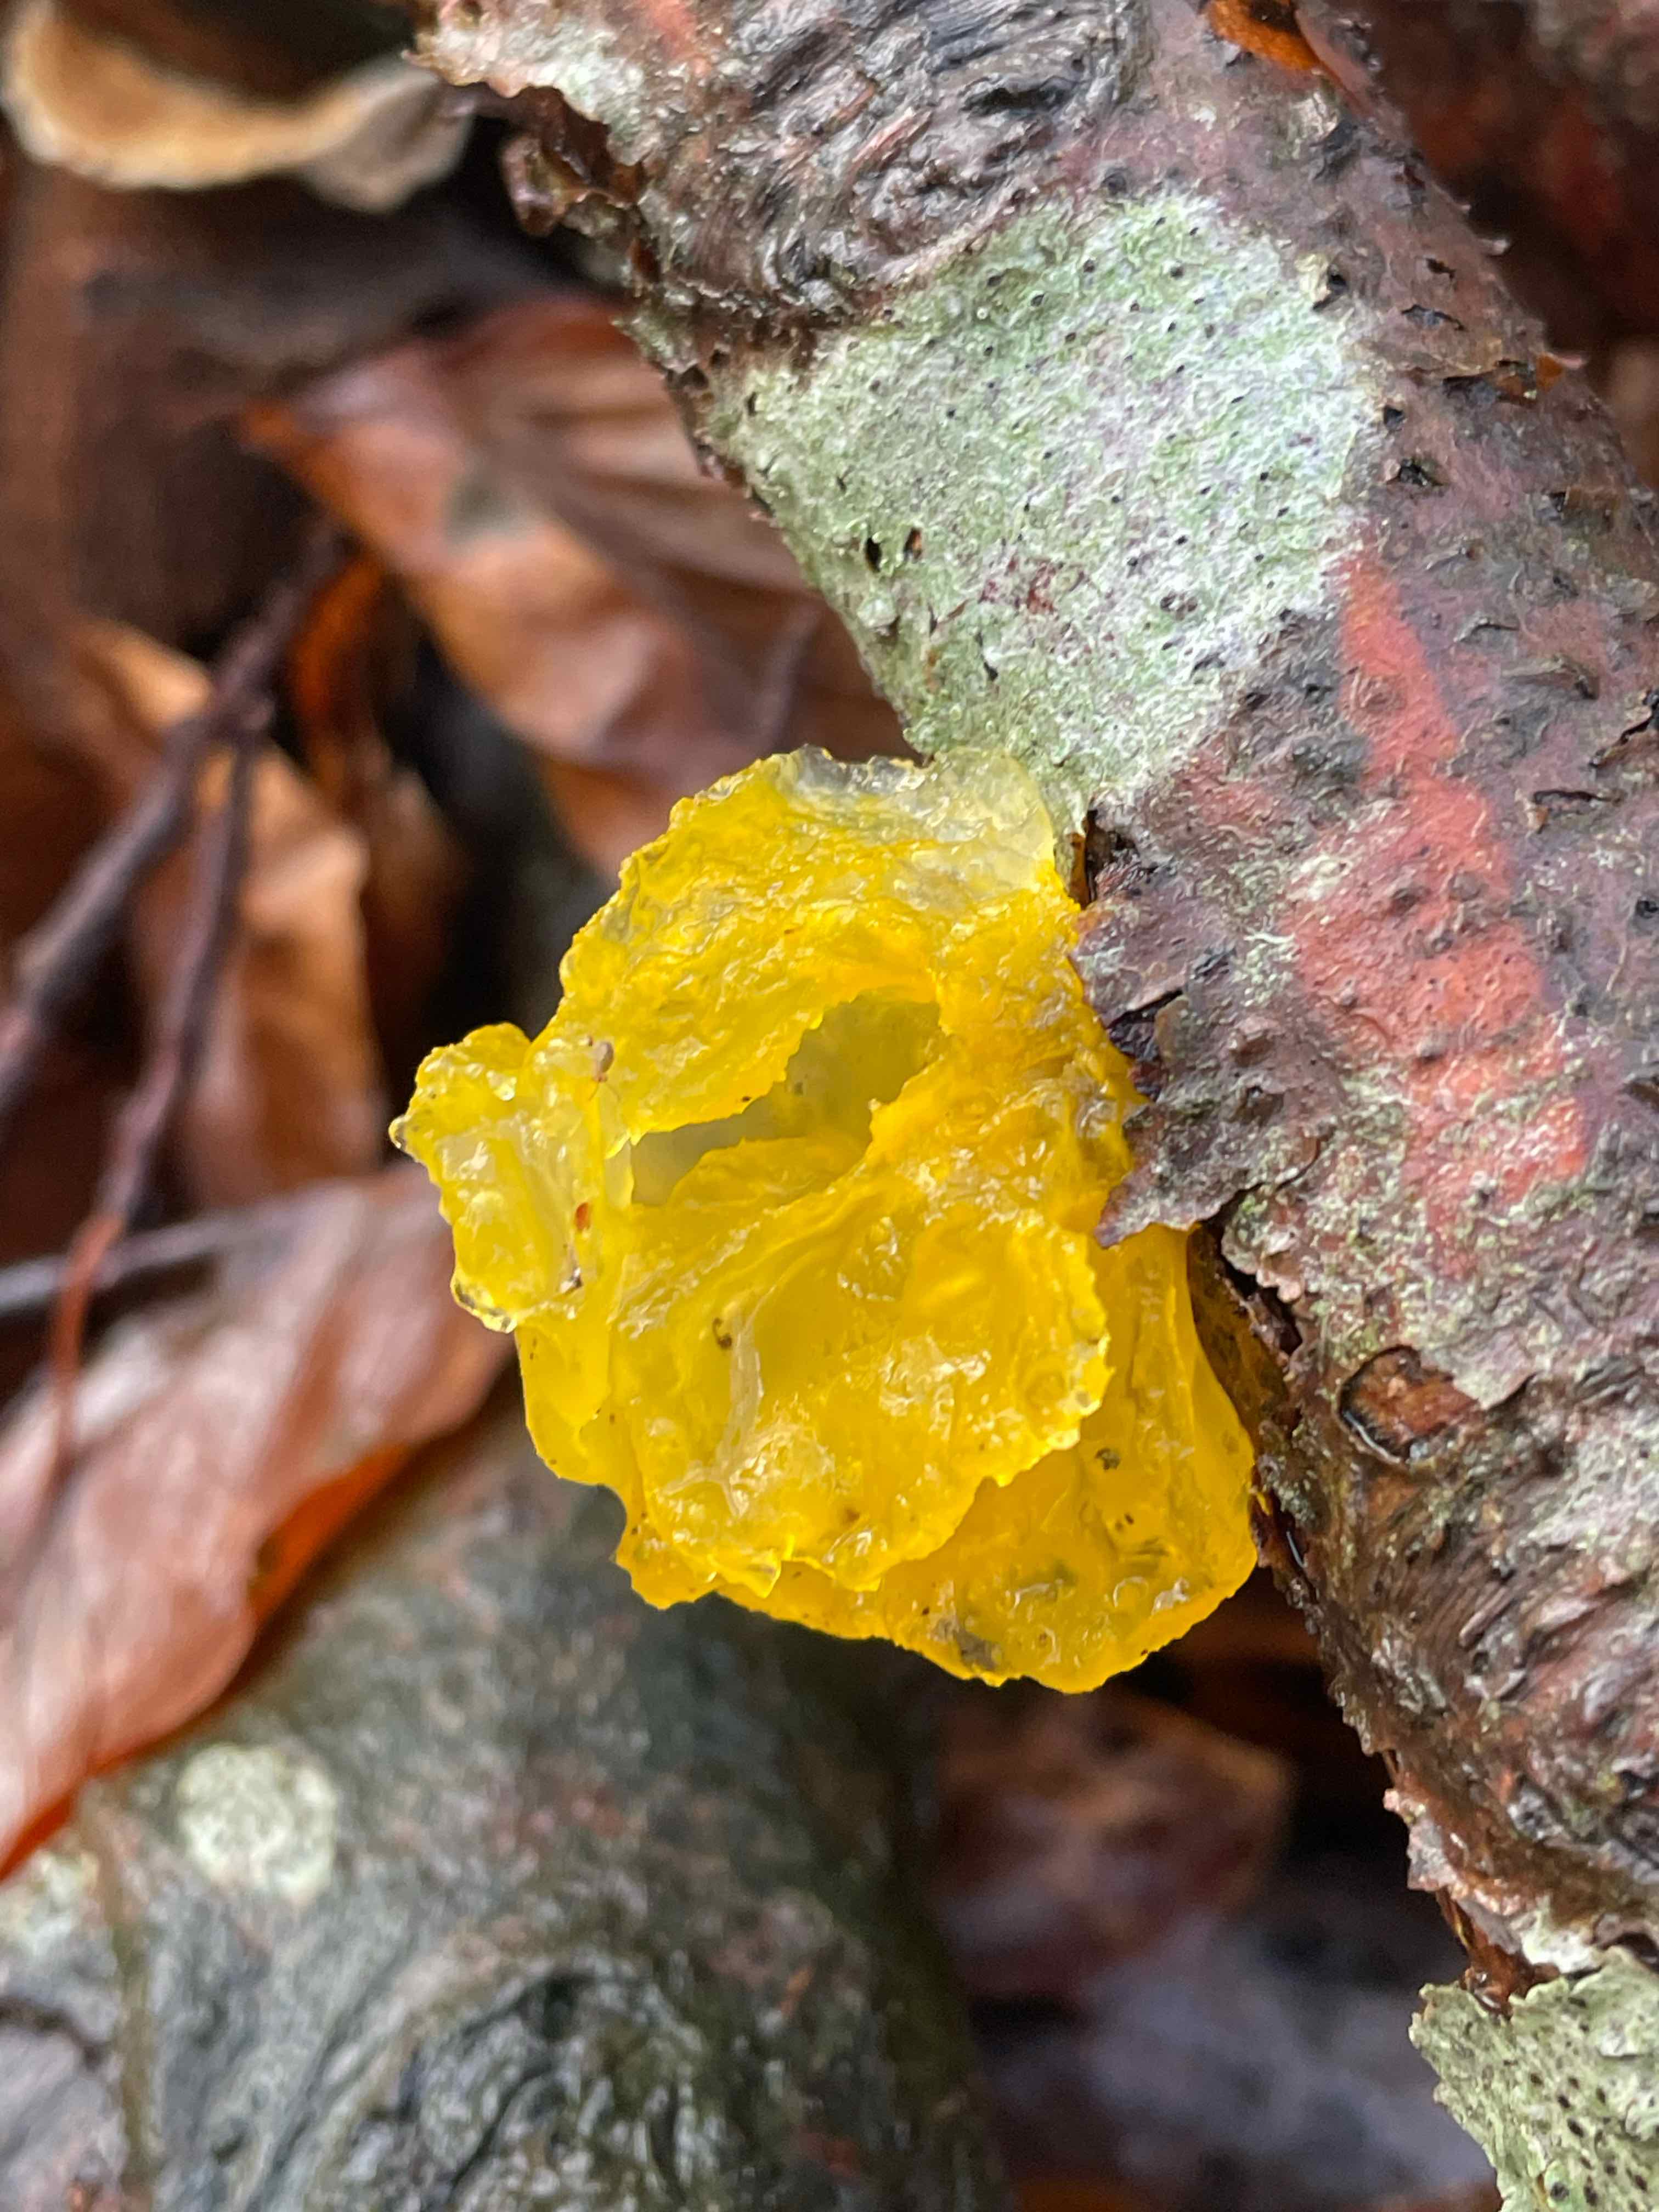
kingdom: Fungi
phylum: Basidiomycota
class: Tremellomycetes
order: Tremellales
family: Tremellaceae
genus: Tremella
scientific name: Tremella mesenterica
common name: gul bævresvamp
